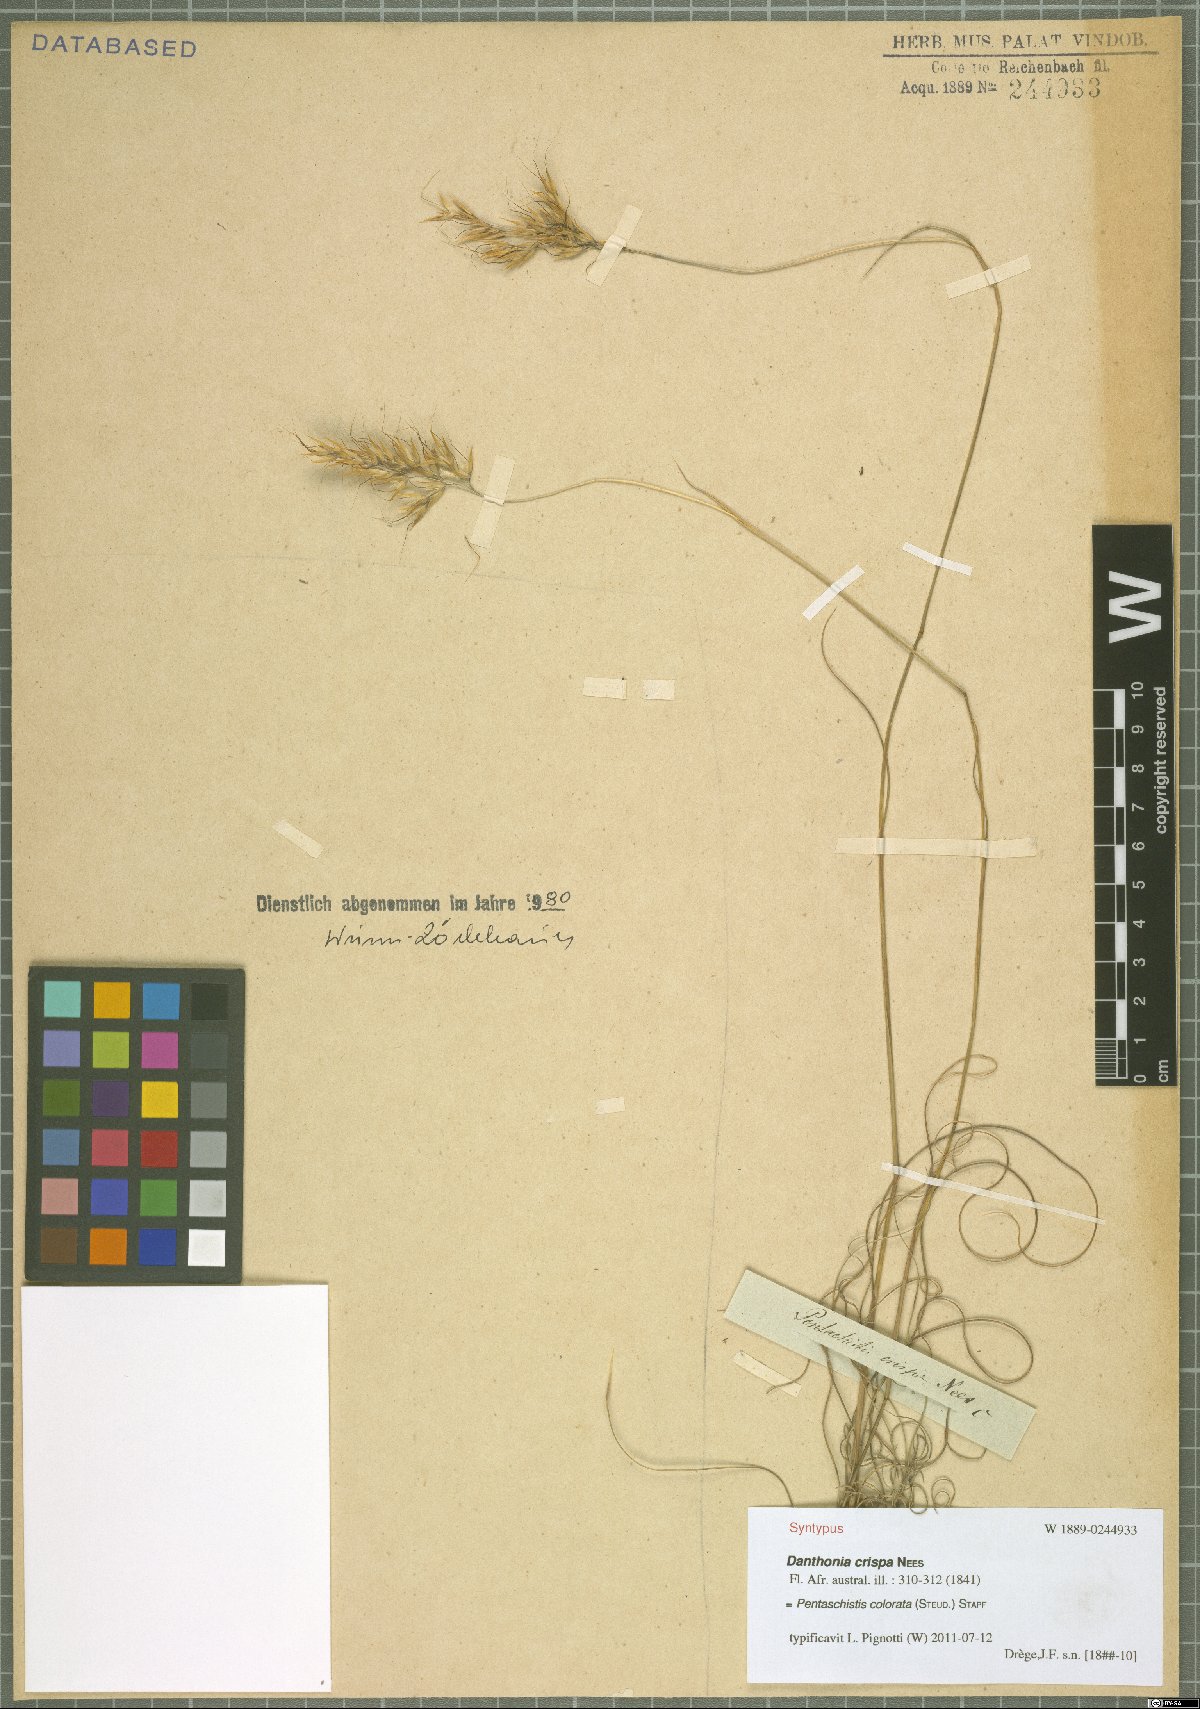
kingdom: Plantae
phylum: Tracheophyta
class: Liliopsida
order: Poales
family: Poaceae
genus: Pentameris
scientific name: Pentameris colorata
